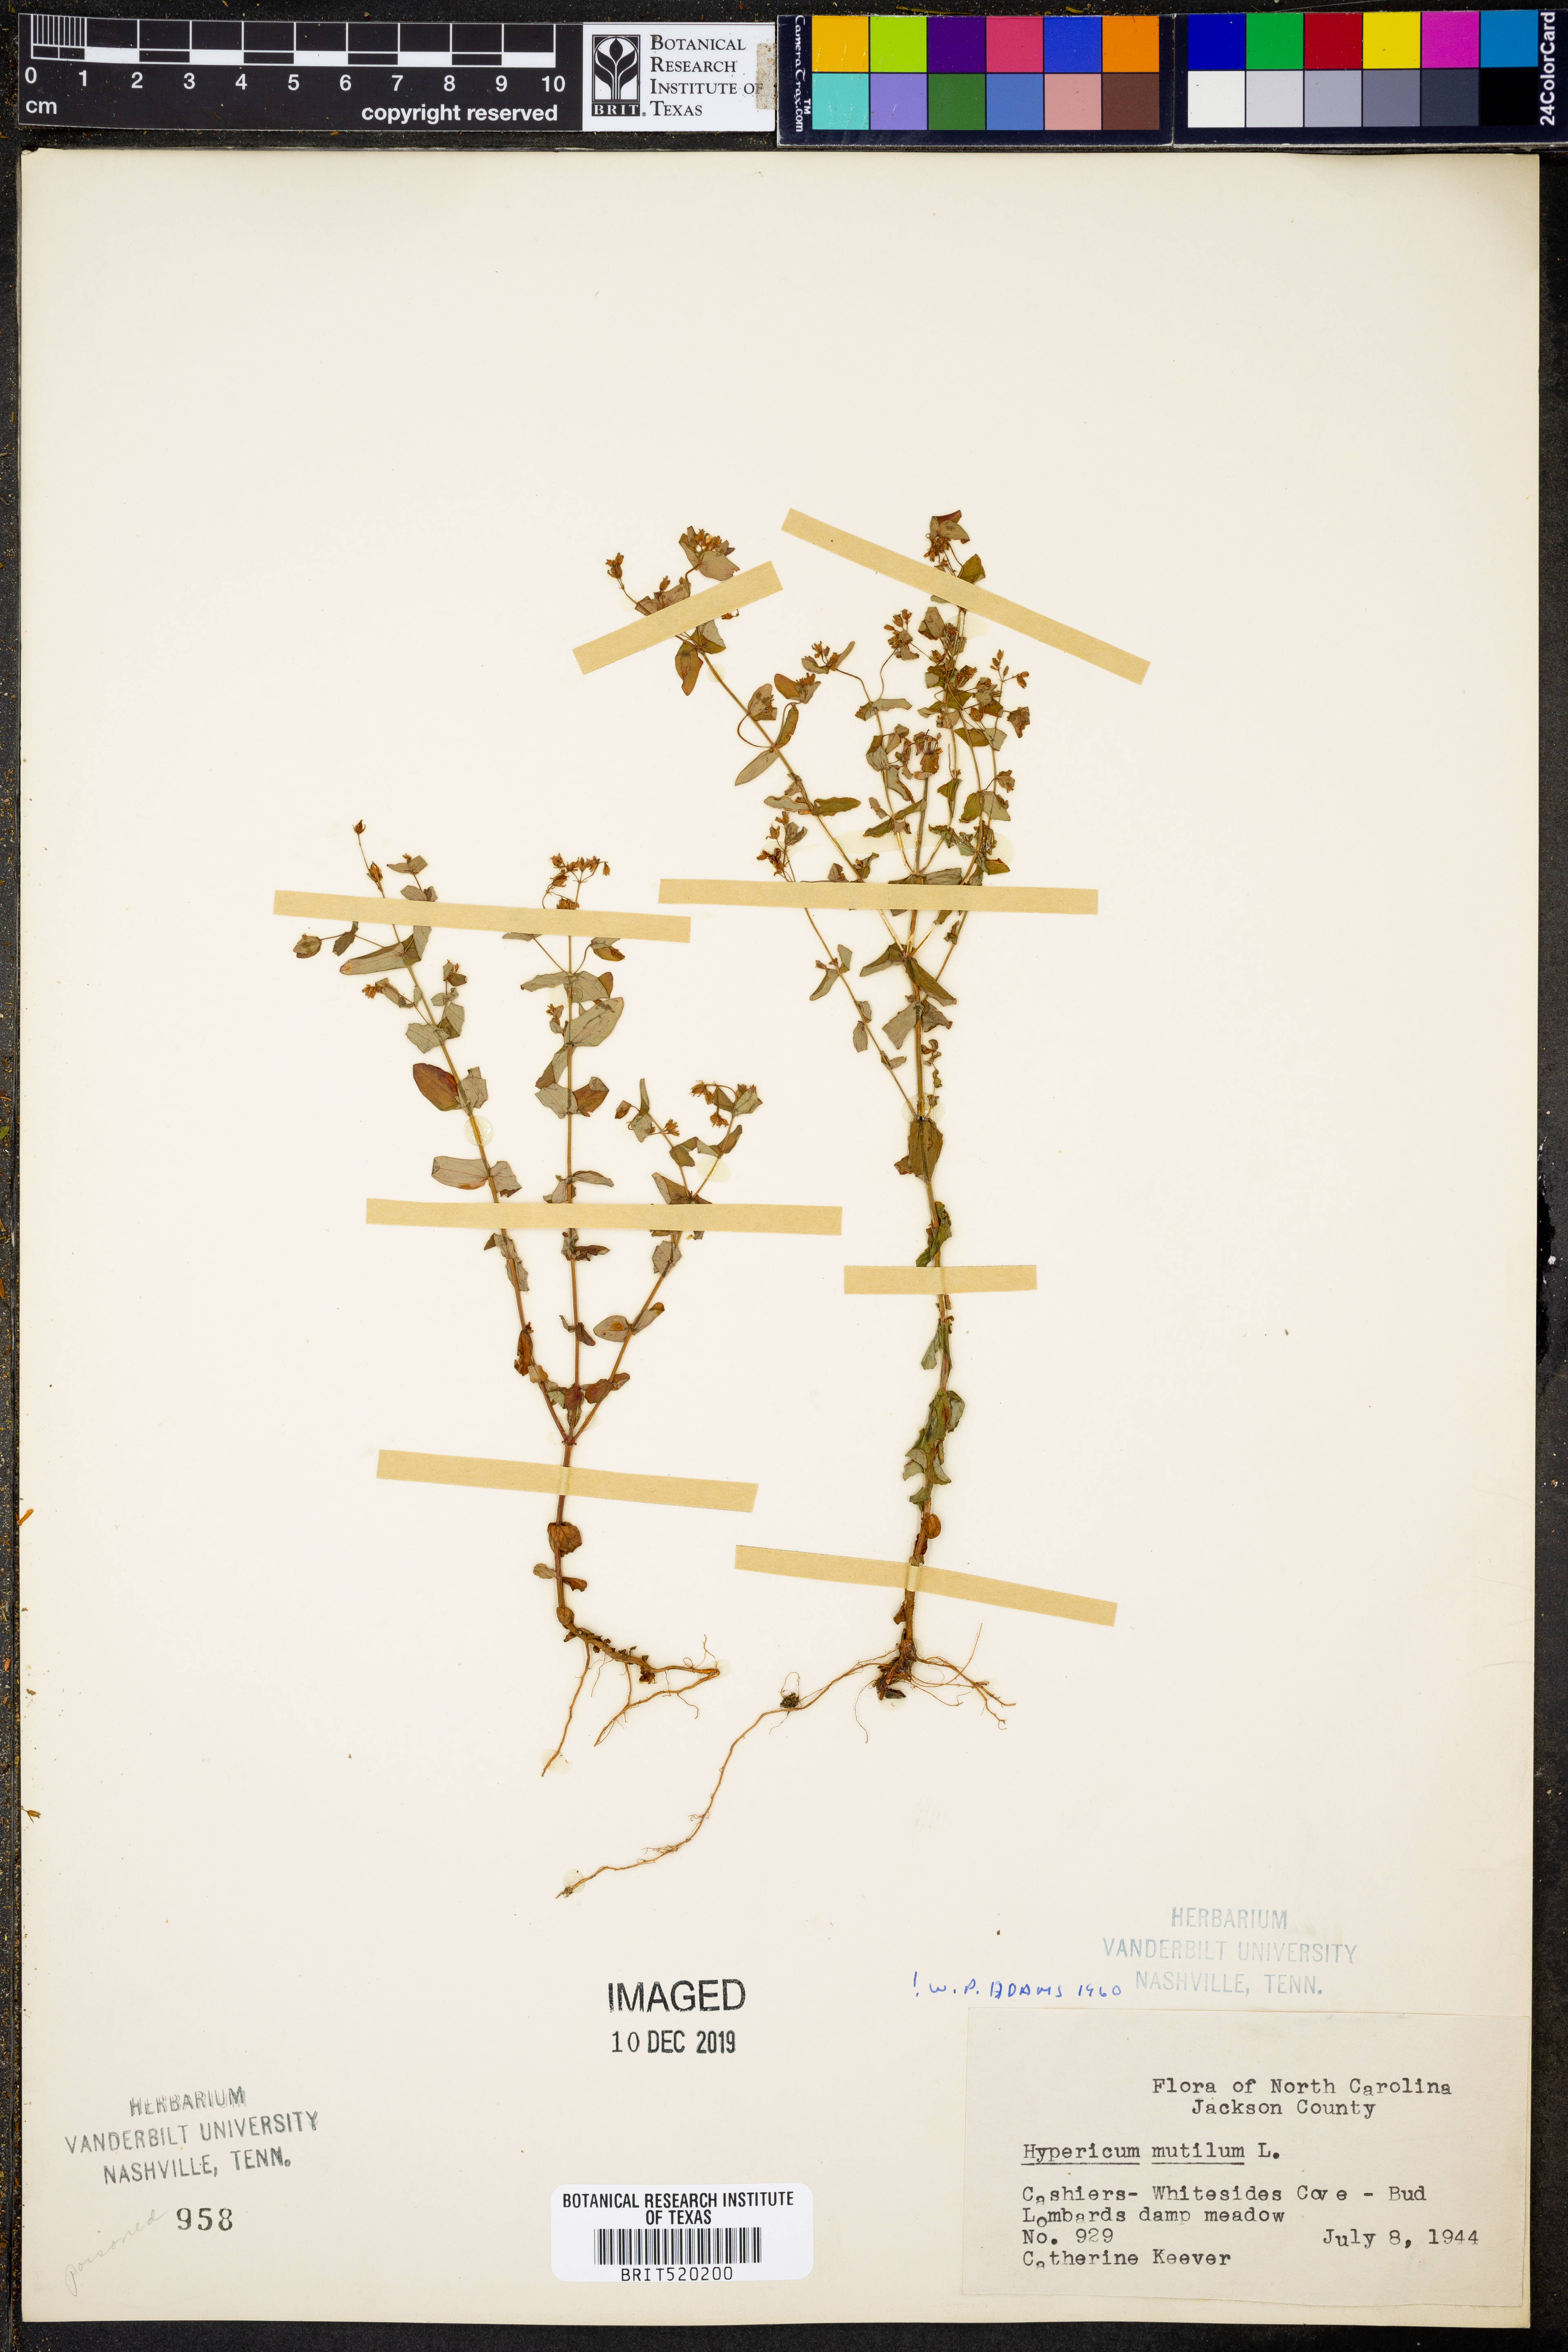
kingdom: Plantae
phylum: Tracheophyta
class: Magnoliopsida
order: Malpighiales
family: Hypericaceae
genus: Hypericum
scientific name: Hypericum mutilum
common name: Dwarf st. john's-wort
